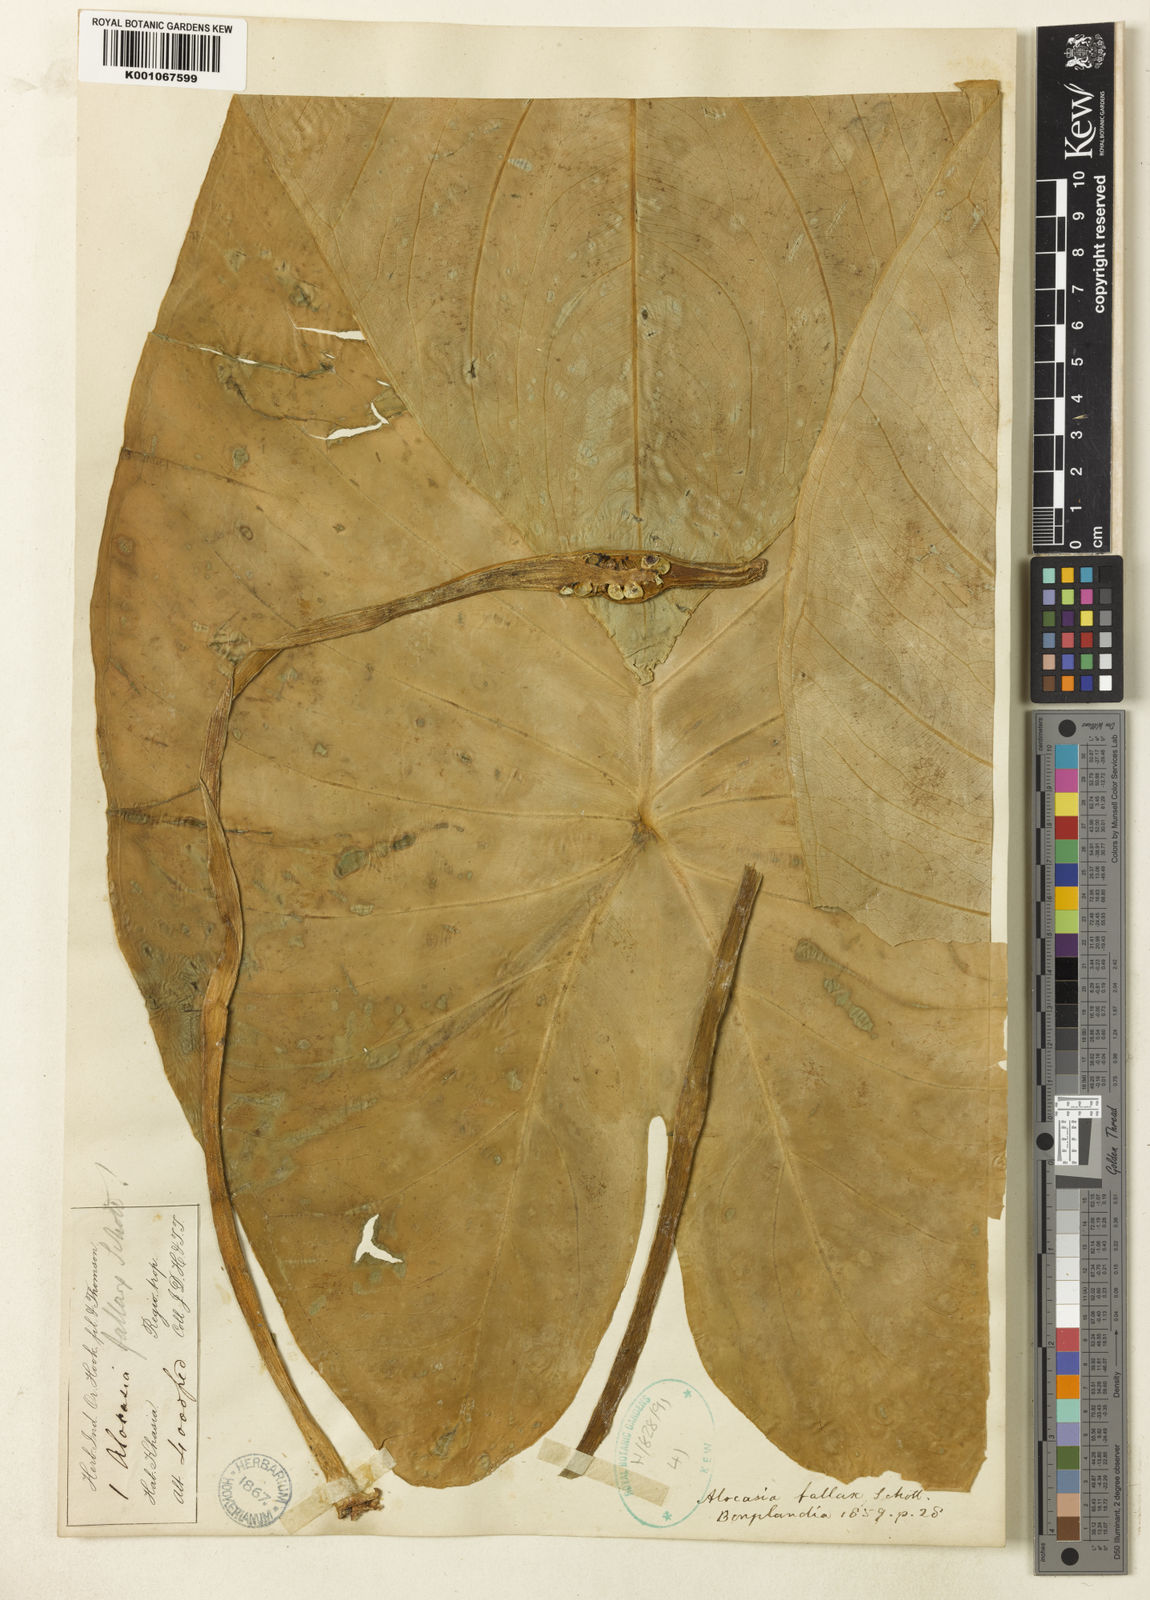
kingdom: Plantae
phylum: Tracheophyta
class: Liliopsida
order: Alismatales
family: Araceae
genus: Alocasia
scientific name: Alocasia fallax
